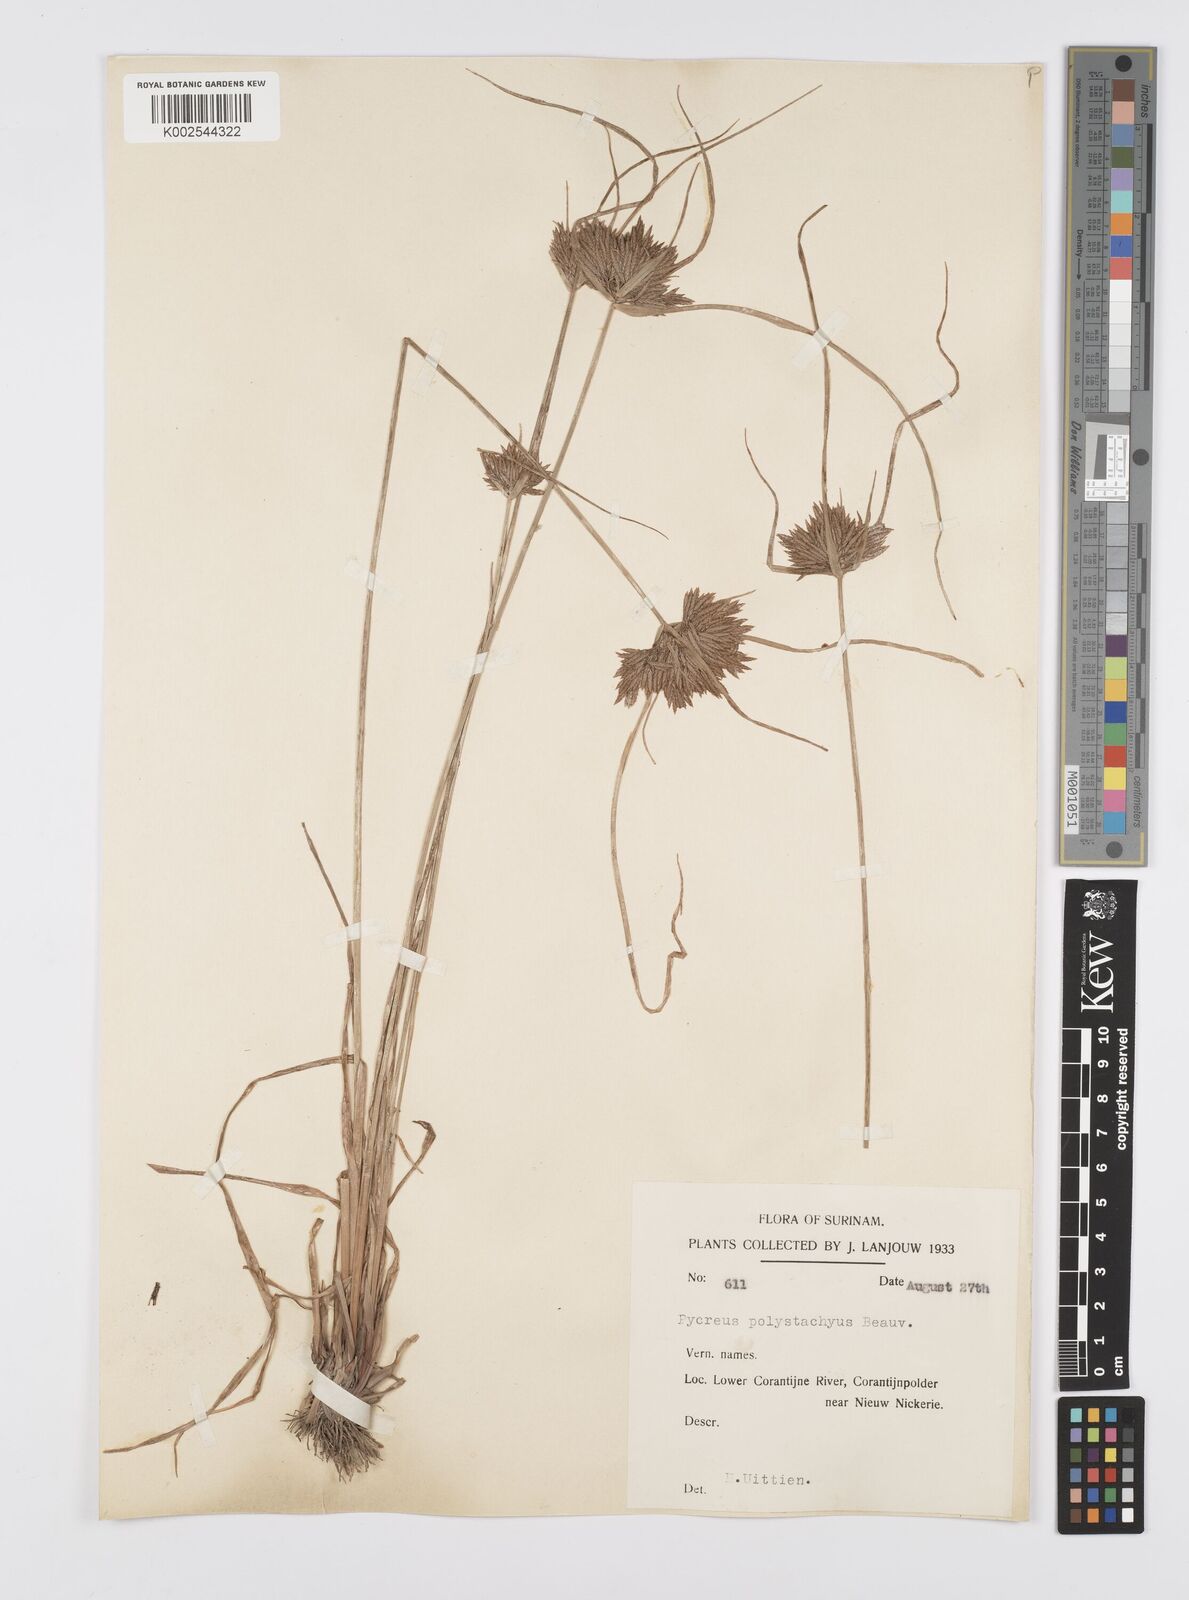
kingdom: Plantae
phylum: Tracheophyta
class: Liliopsida
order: Poales
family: Cyperaceae
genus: Cyperus
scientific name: Cyperus polystachyos
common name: Bunchy flat sedge
